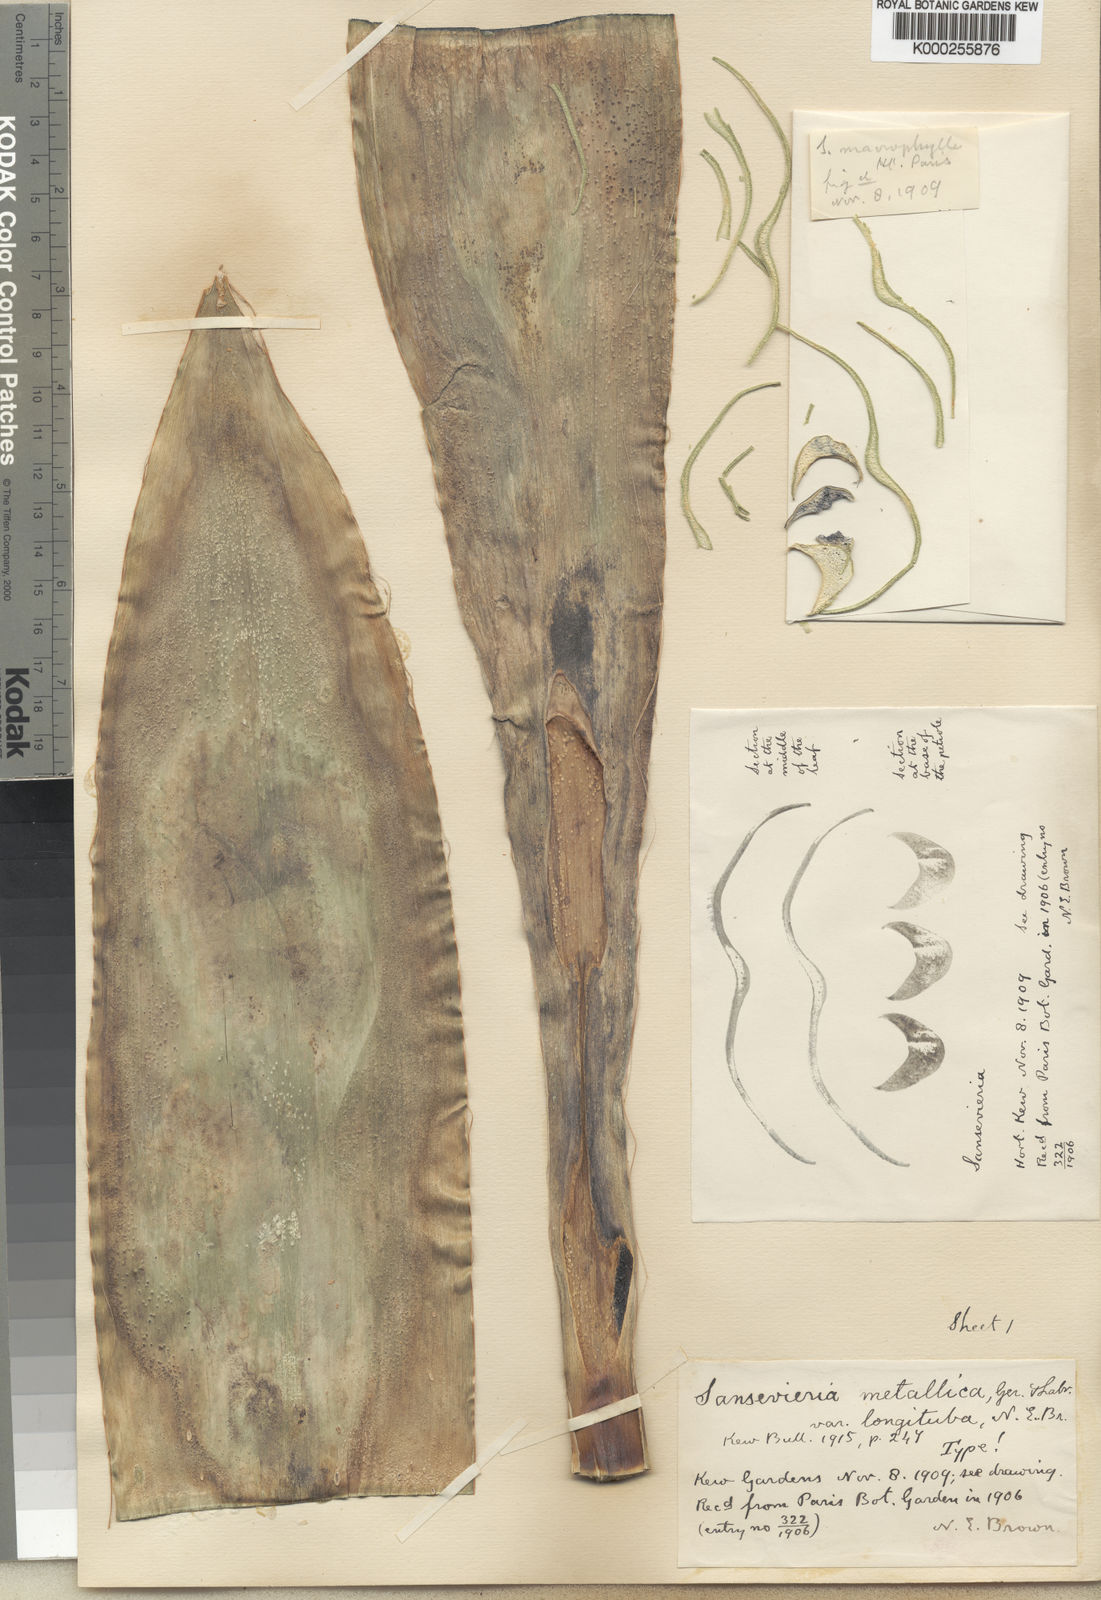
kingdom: Plantae
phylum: Tracheophyta
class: Liliopsida
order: Asparagales
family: Asparagaceae
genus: Dracaena
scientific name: Dracaena zebra
